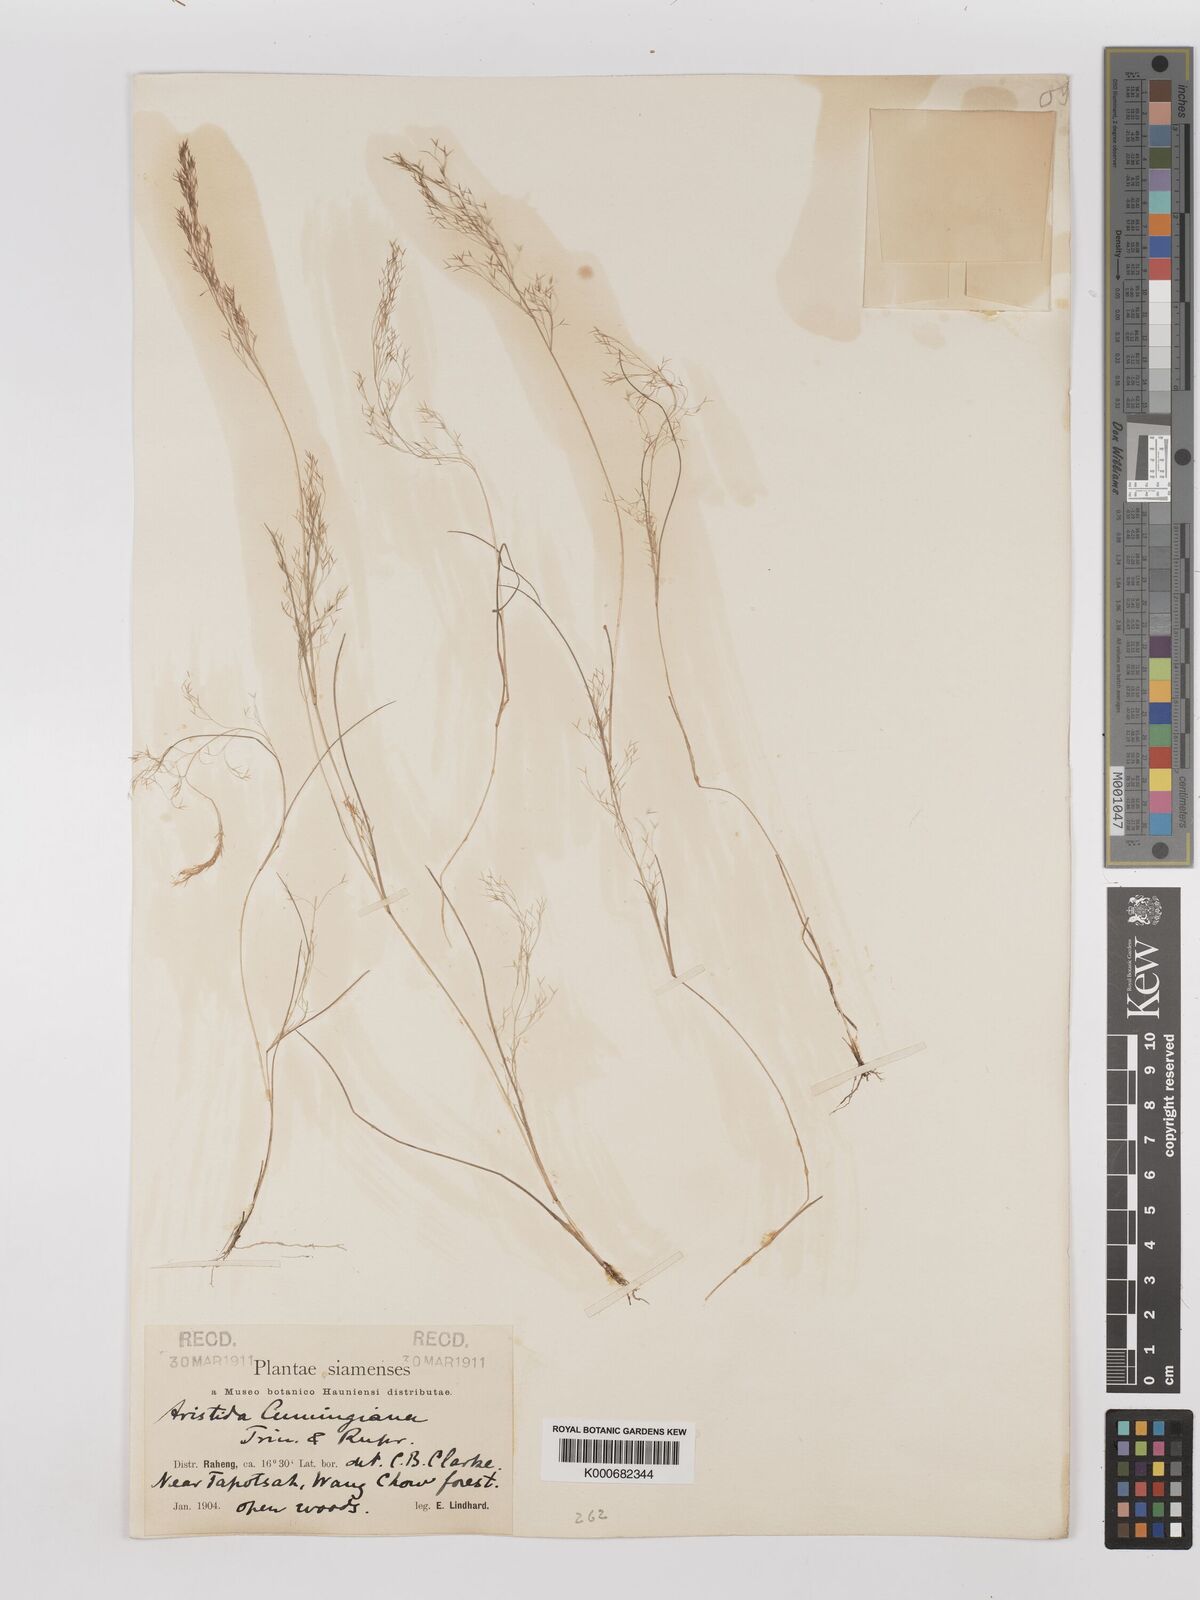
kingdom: Plantae
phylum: Tracheophyta
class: Liliopsida
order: Poales
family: Poaceae
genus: Aristida
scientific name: Aristida cumingiana
